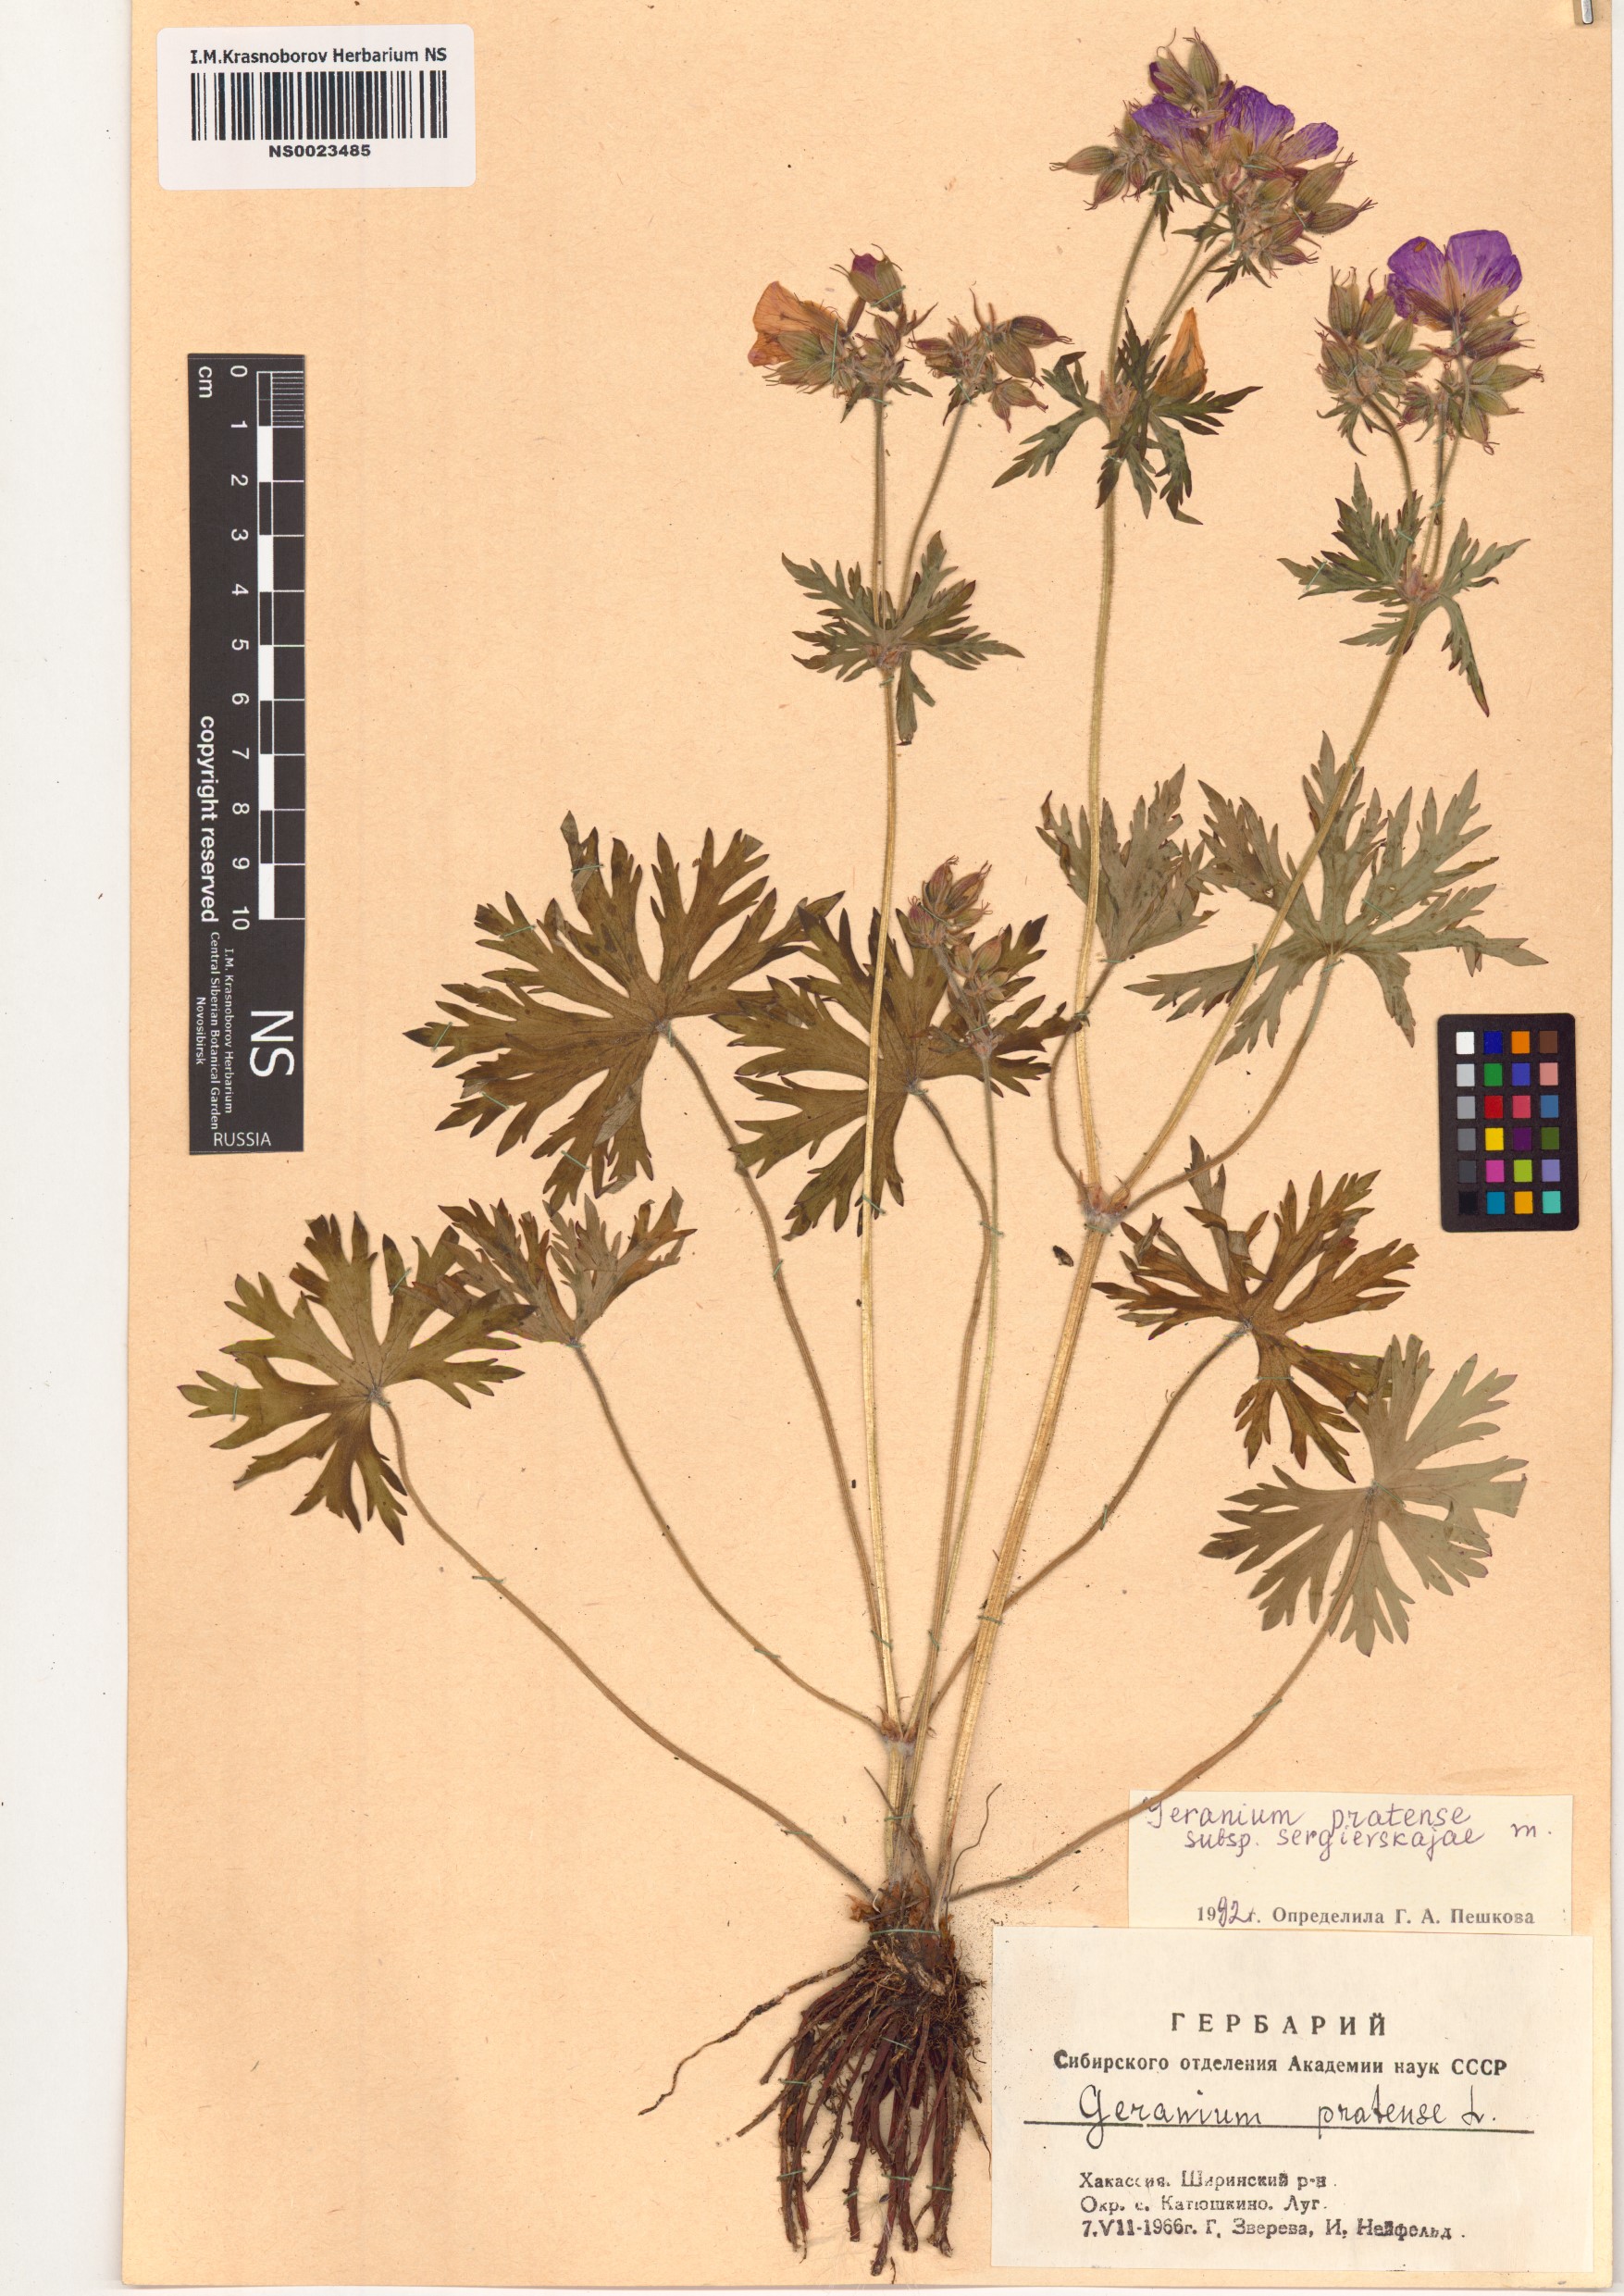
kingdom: Plantae
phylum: Tracheophyta
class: Magnoliopsida
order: Geraniales
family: Geraniaceae
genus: Geranium
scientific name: Geranium pratense
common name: Meadow crane's-bill
